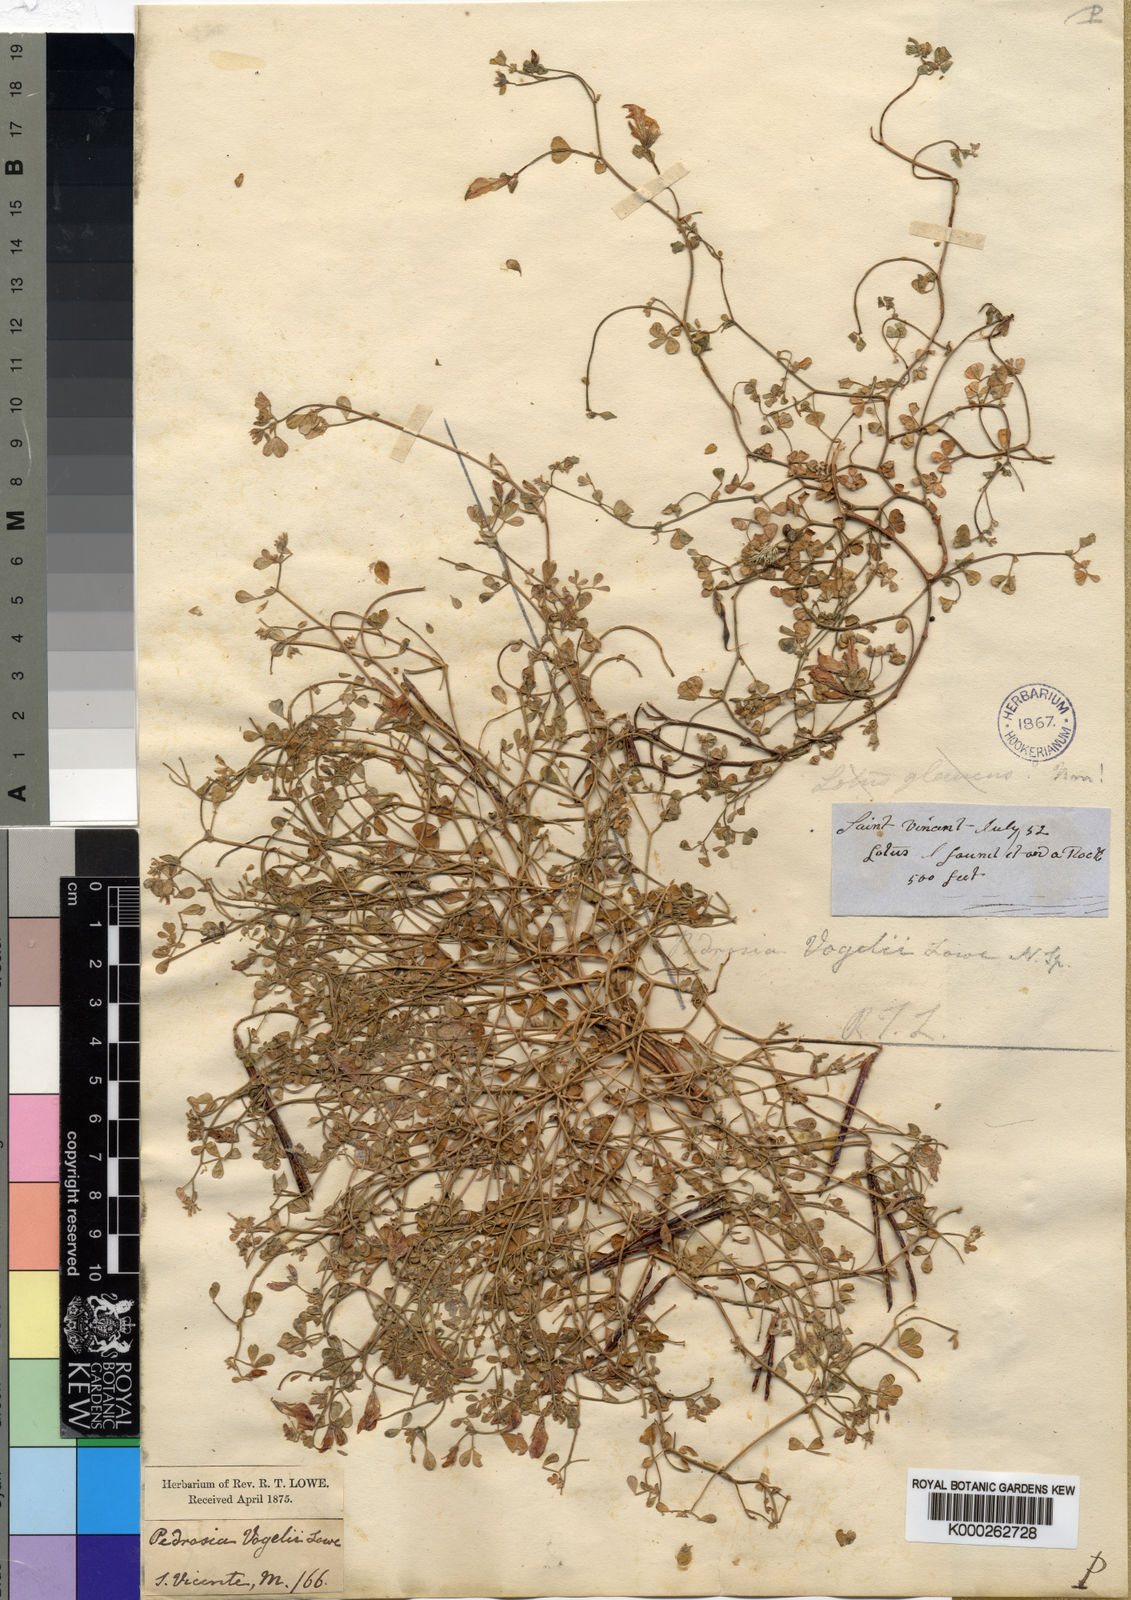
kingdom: Plantae
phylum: Tracheophyta
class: Magnoliopsida
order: Fabales
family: Fabaceae
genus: Lotus
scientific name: Lotus
